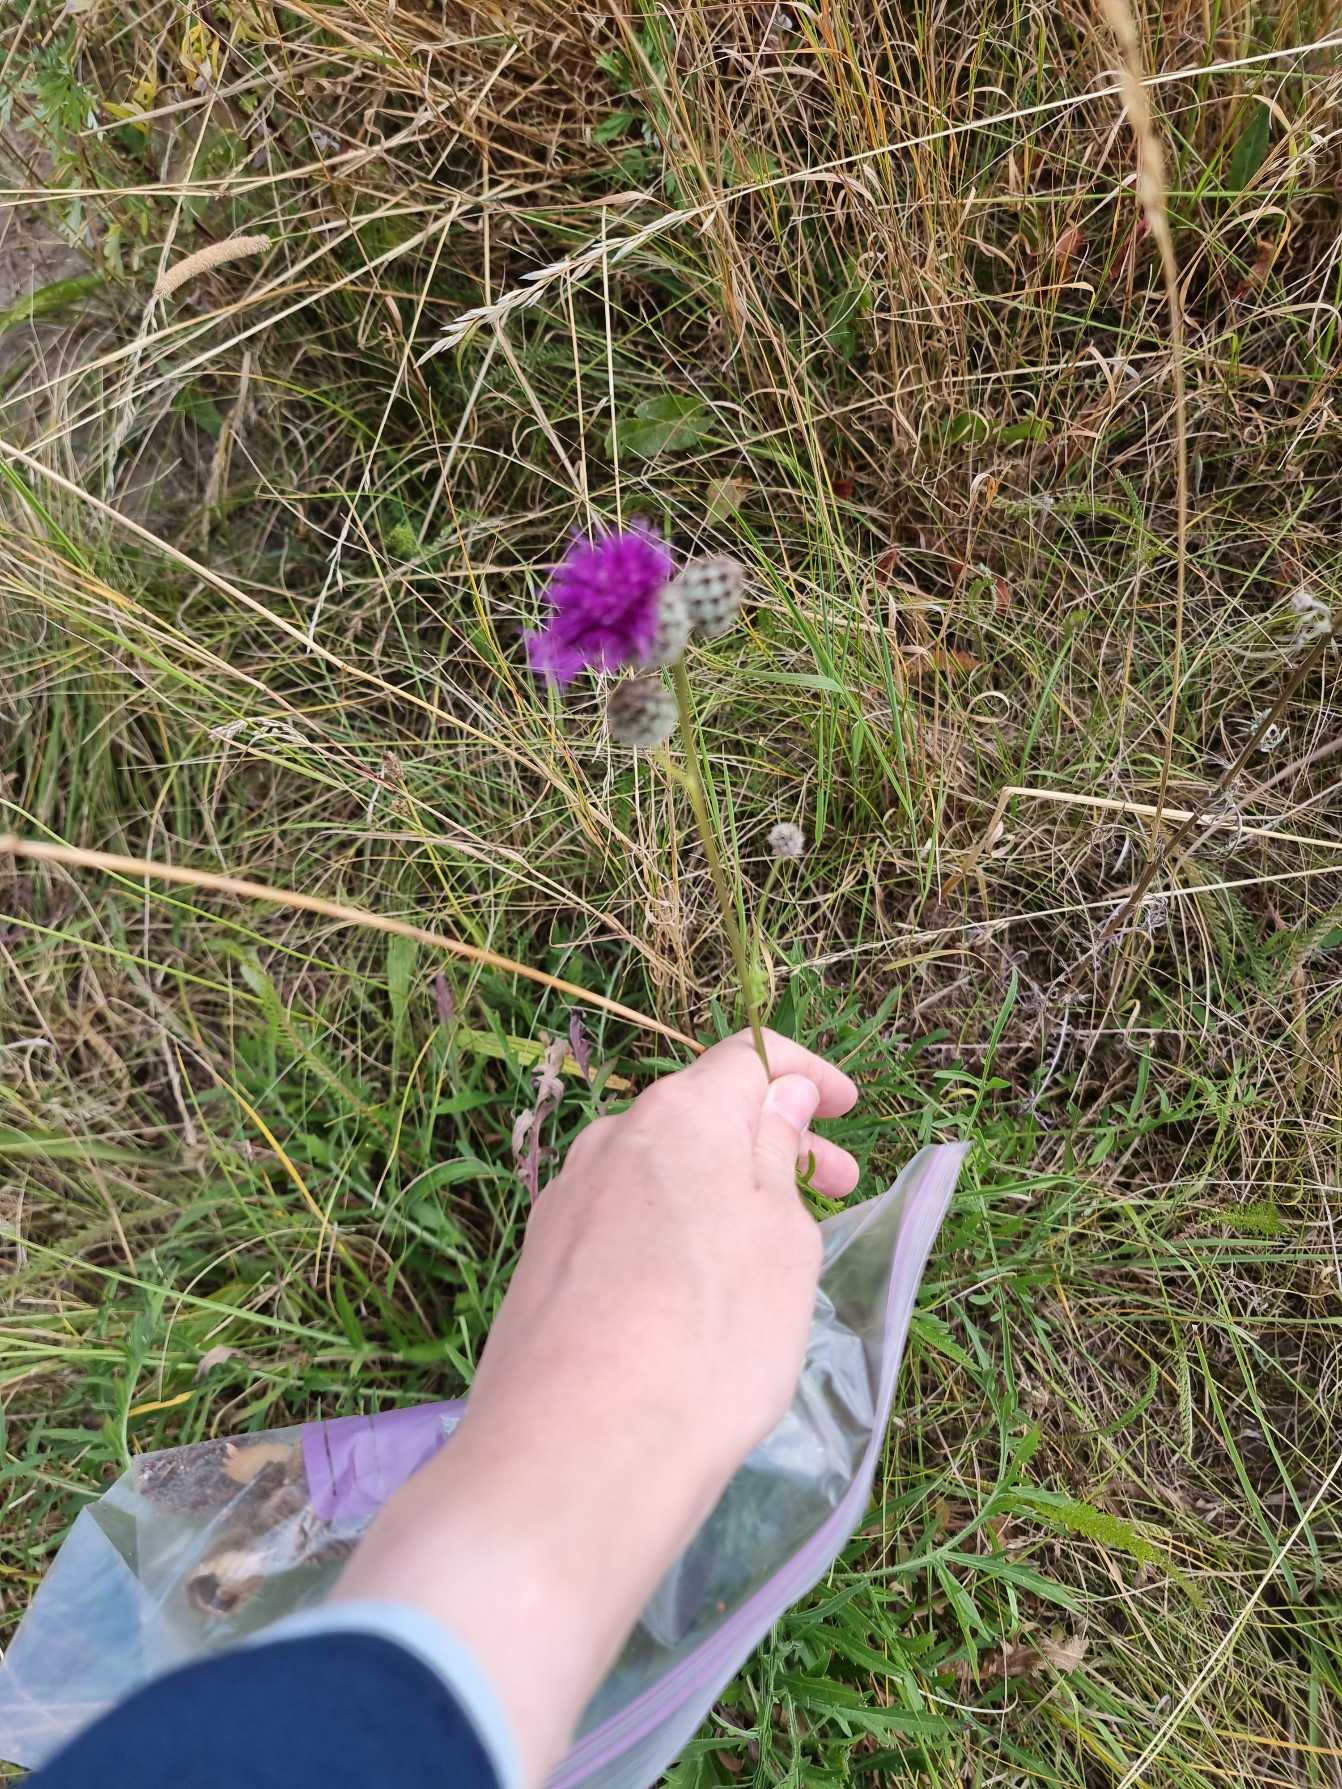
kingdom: Plantae
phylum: Tracheophyta
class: Magnoliopsida
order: Asterales
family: Asteraceae
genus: Centaurea
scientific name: Centaurea scabiosa
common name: Stor knopurt
